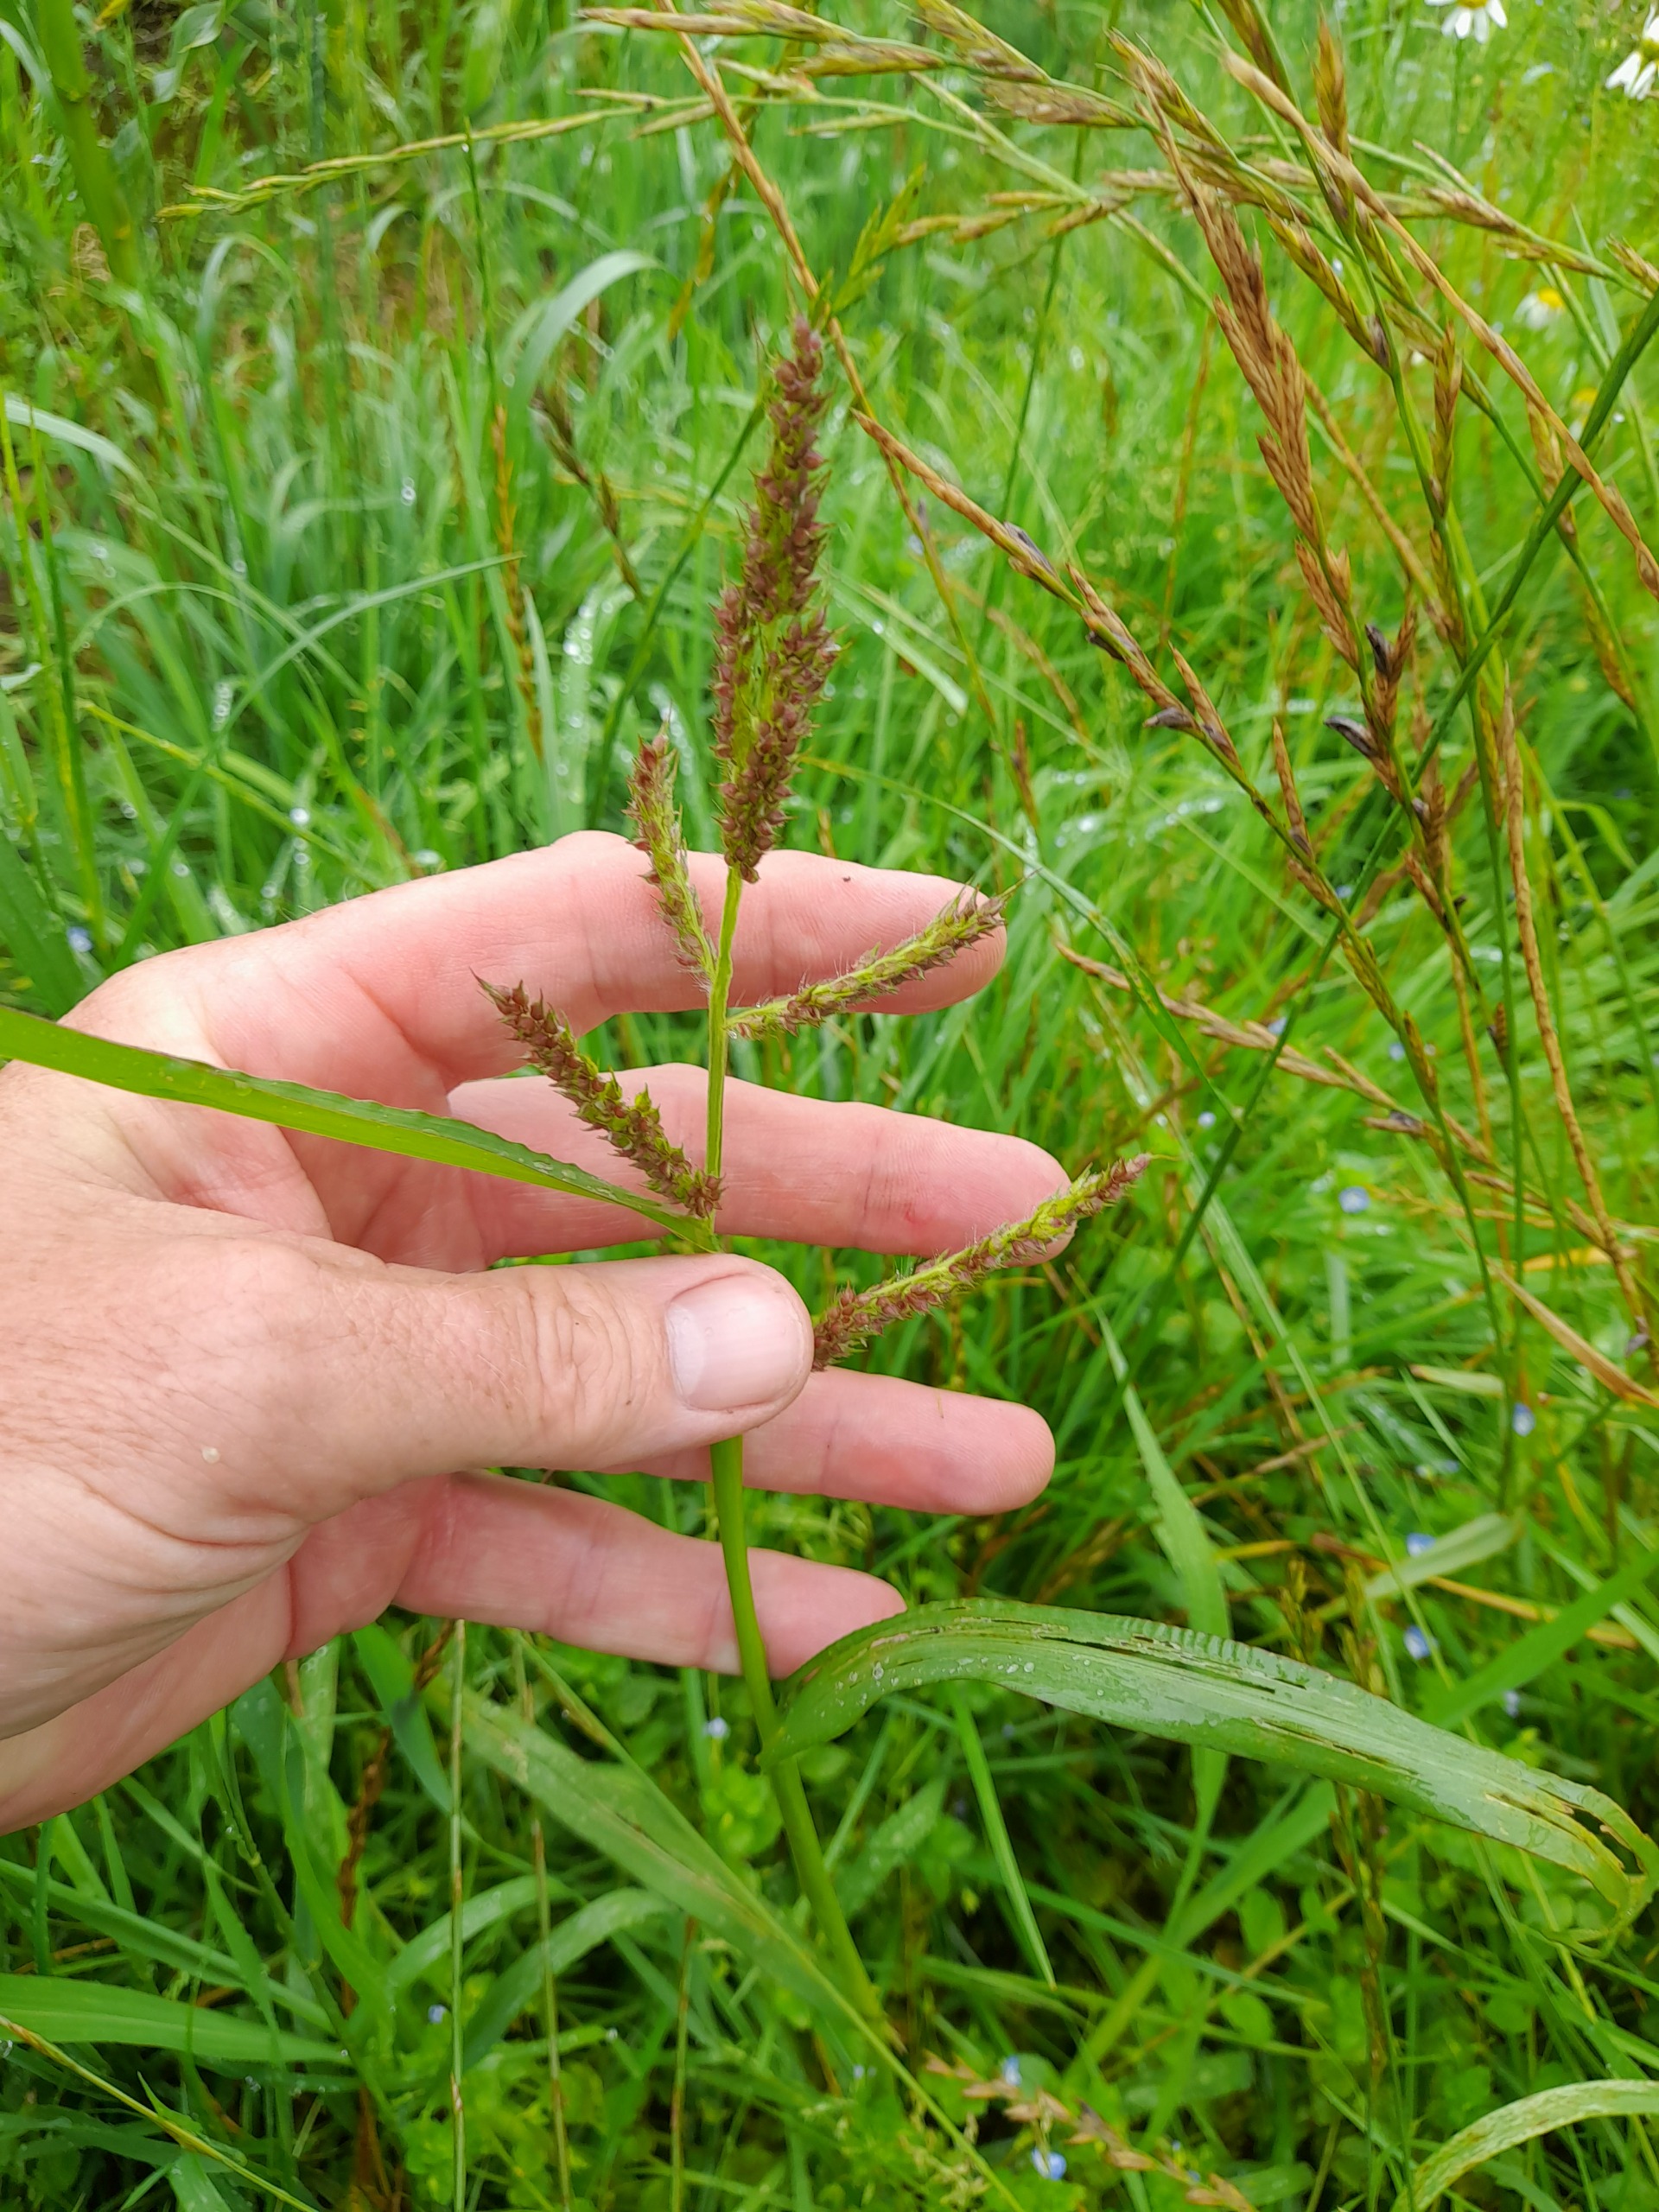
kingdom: Plantae
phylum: Tracheophyta
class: Liliopsida
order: Poales
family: Poaceae
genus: Echinochloa
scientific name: Echinochloa crus-galli
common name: Almindelig hanespore
